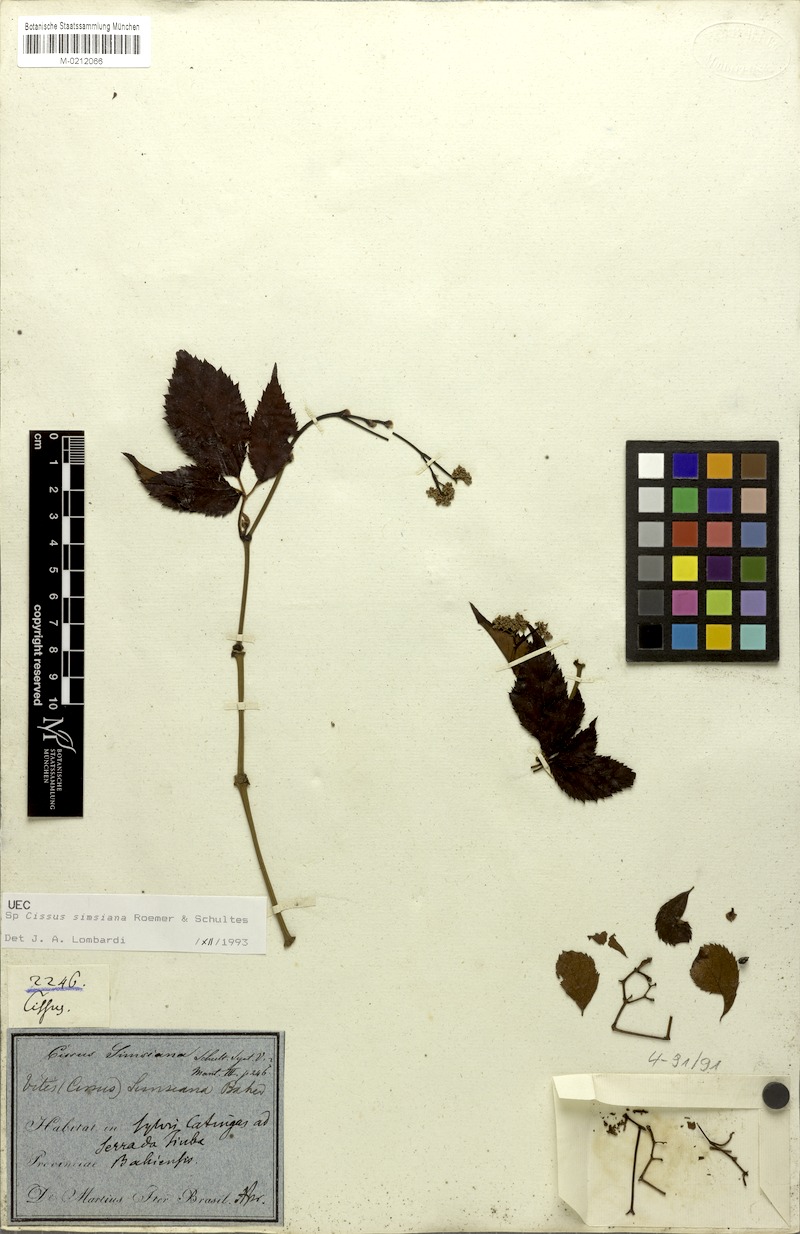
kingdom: Plantae
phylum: Tracheophyta
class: Magnoliopsida
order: Vitales
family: Vitaceae
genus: Clematicissus
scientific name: Clematicissus simsiana
